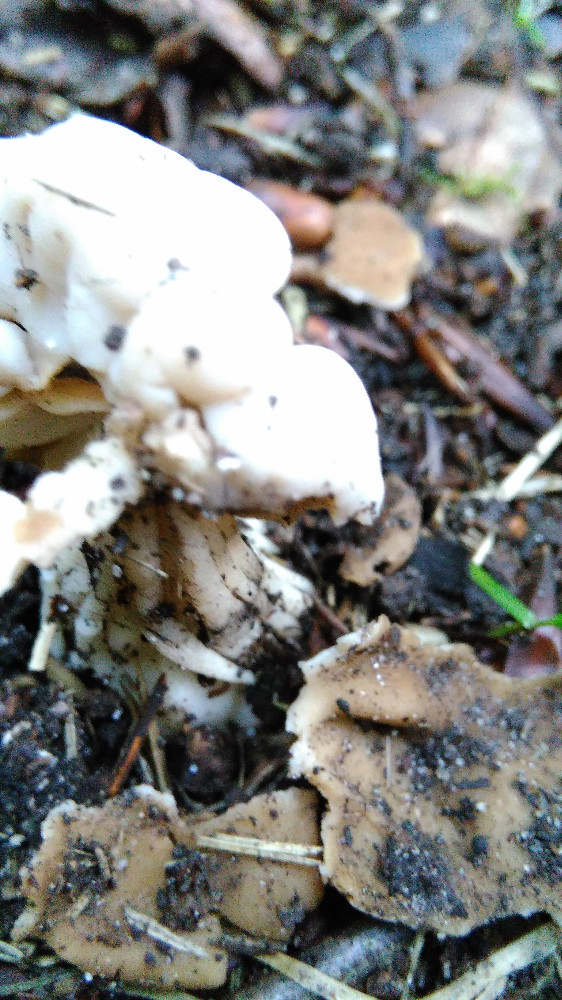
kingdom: Fungi
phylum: Ascomycota
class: Pezizomycetes
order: Pezizales
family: Helvellaceae
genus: Helvella
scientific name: Helvella crispa
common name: kruset foldhat
